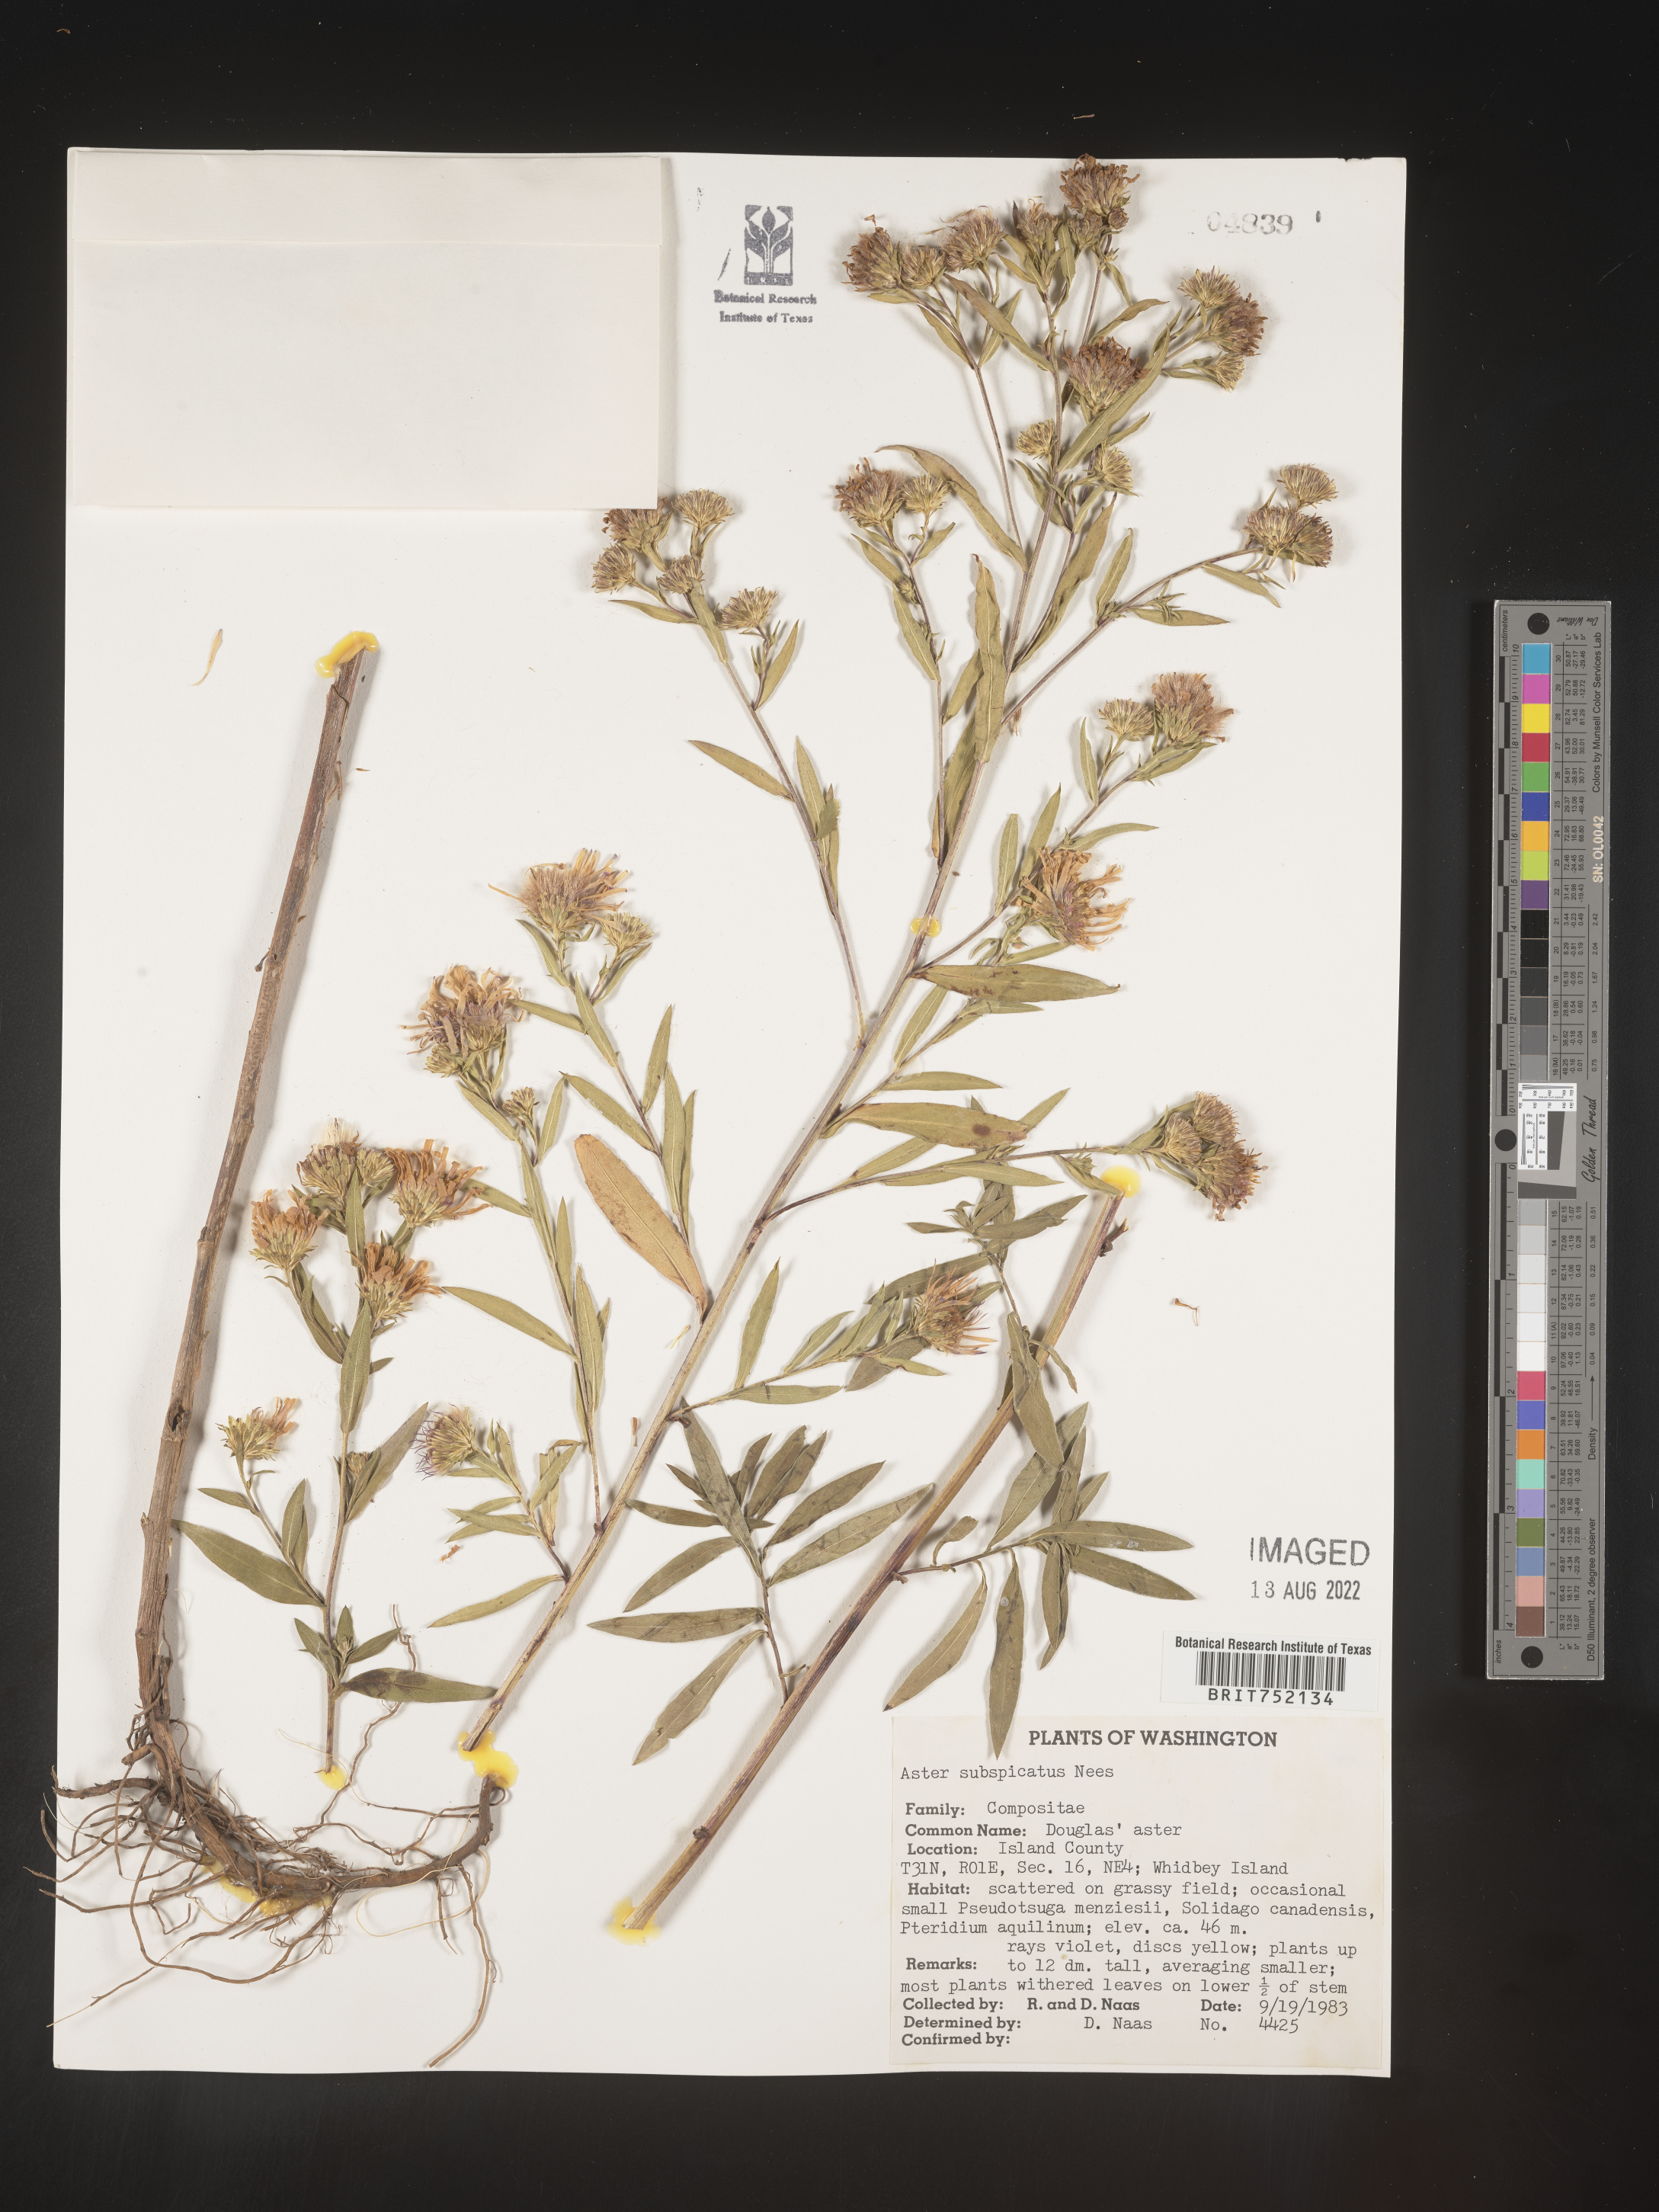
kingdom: Plantae
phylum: Tracheophyta
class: Magnoliopsida
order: Asterales
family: Asteraceae
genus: Symphyotrichum
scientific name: Symphyotrichum bracteolatum
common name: Eaton's aster
